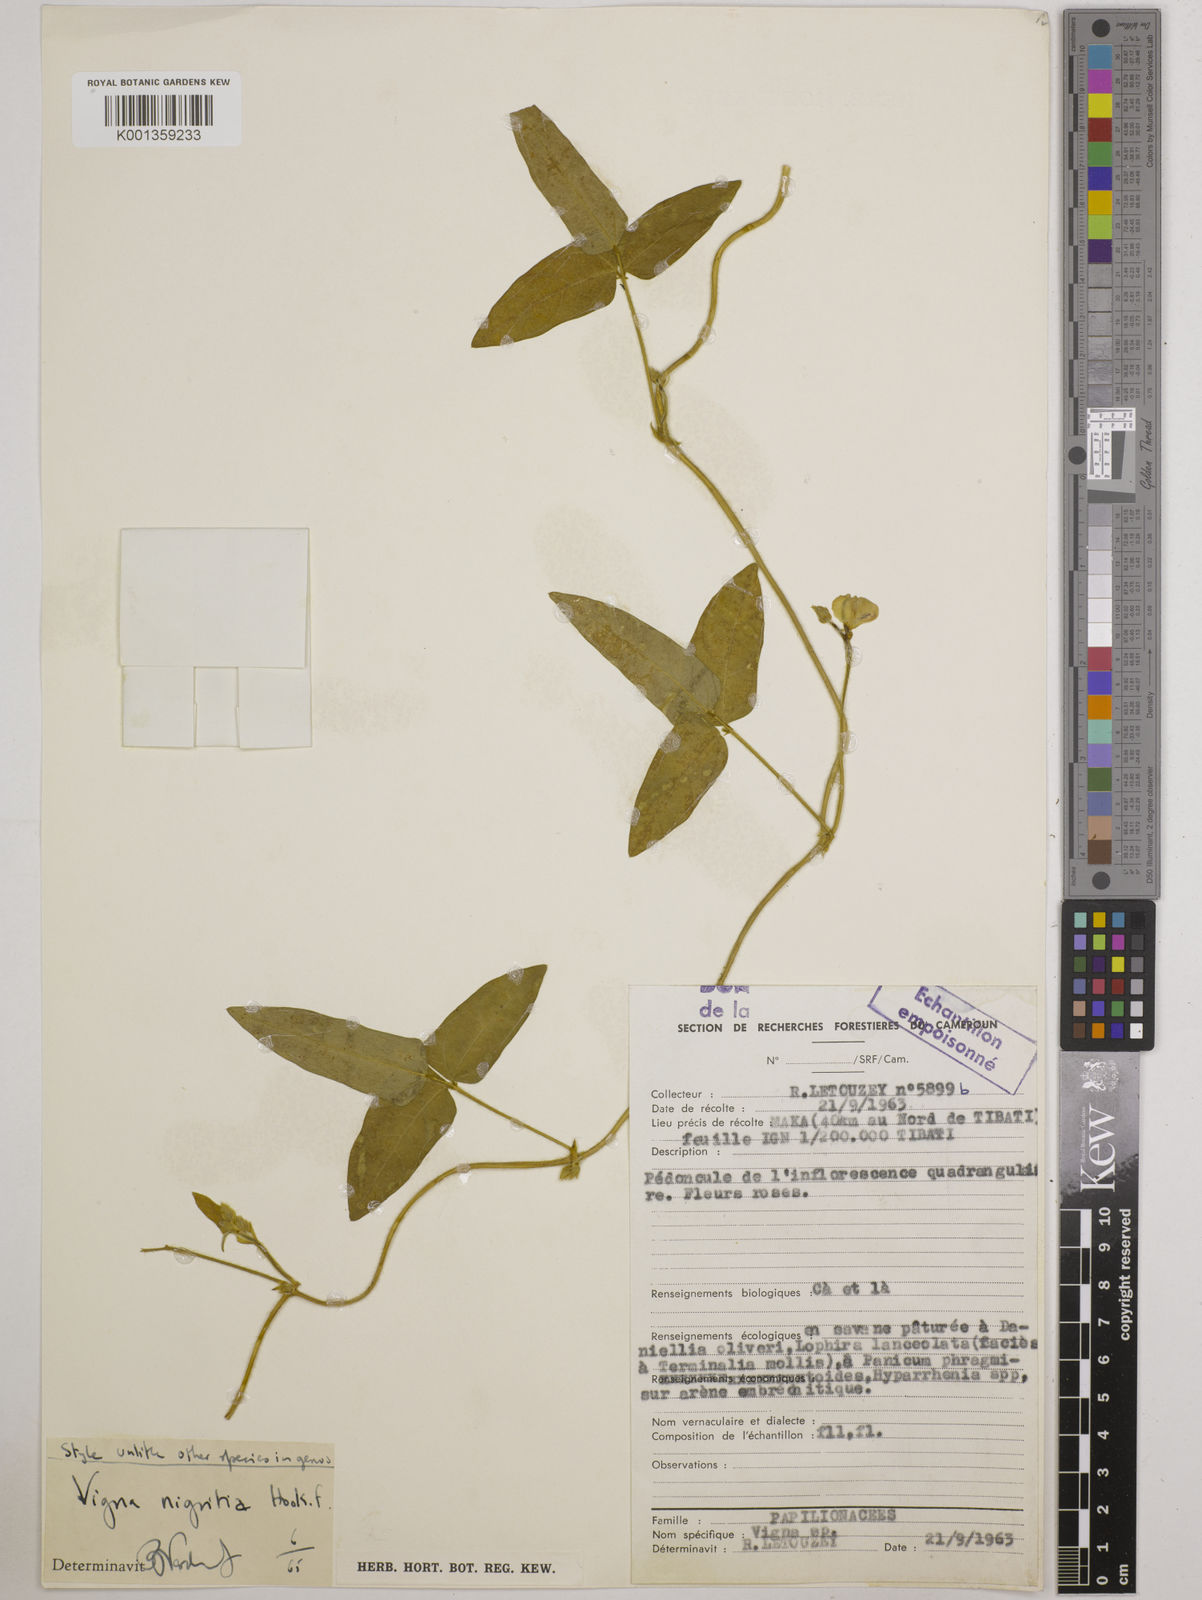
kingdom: Plantae
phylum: Tracheophyta
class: Magnoliopsida
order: Fabales
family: Fabaceae
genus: Vigna
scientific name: Vigna nigritia
